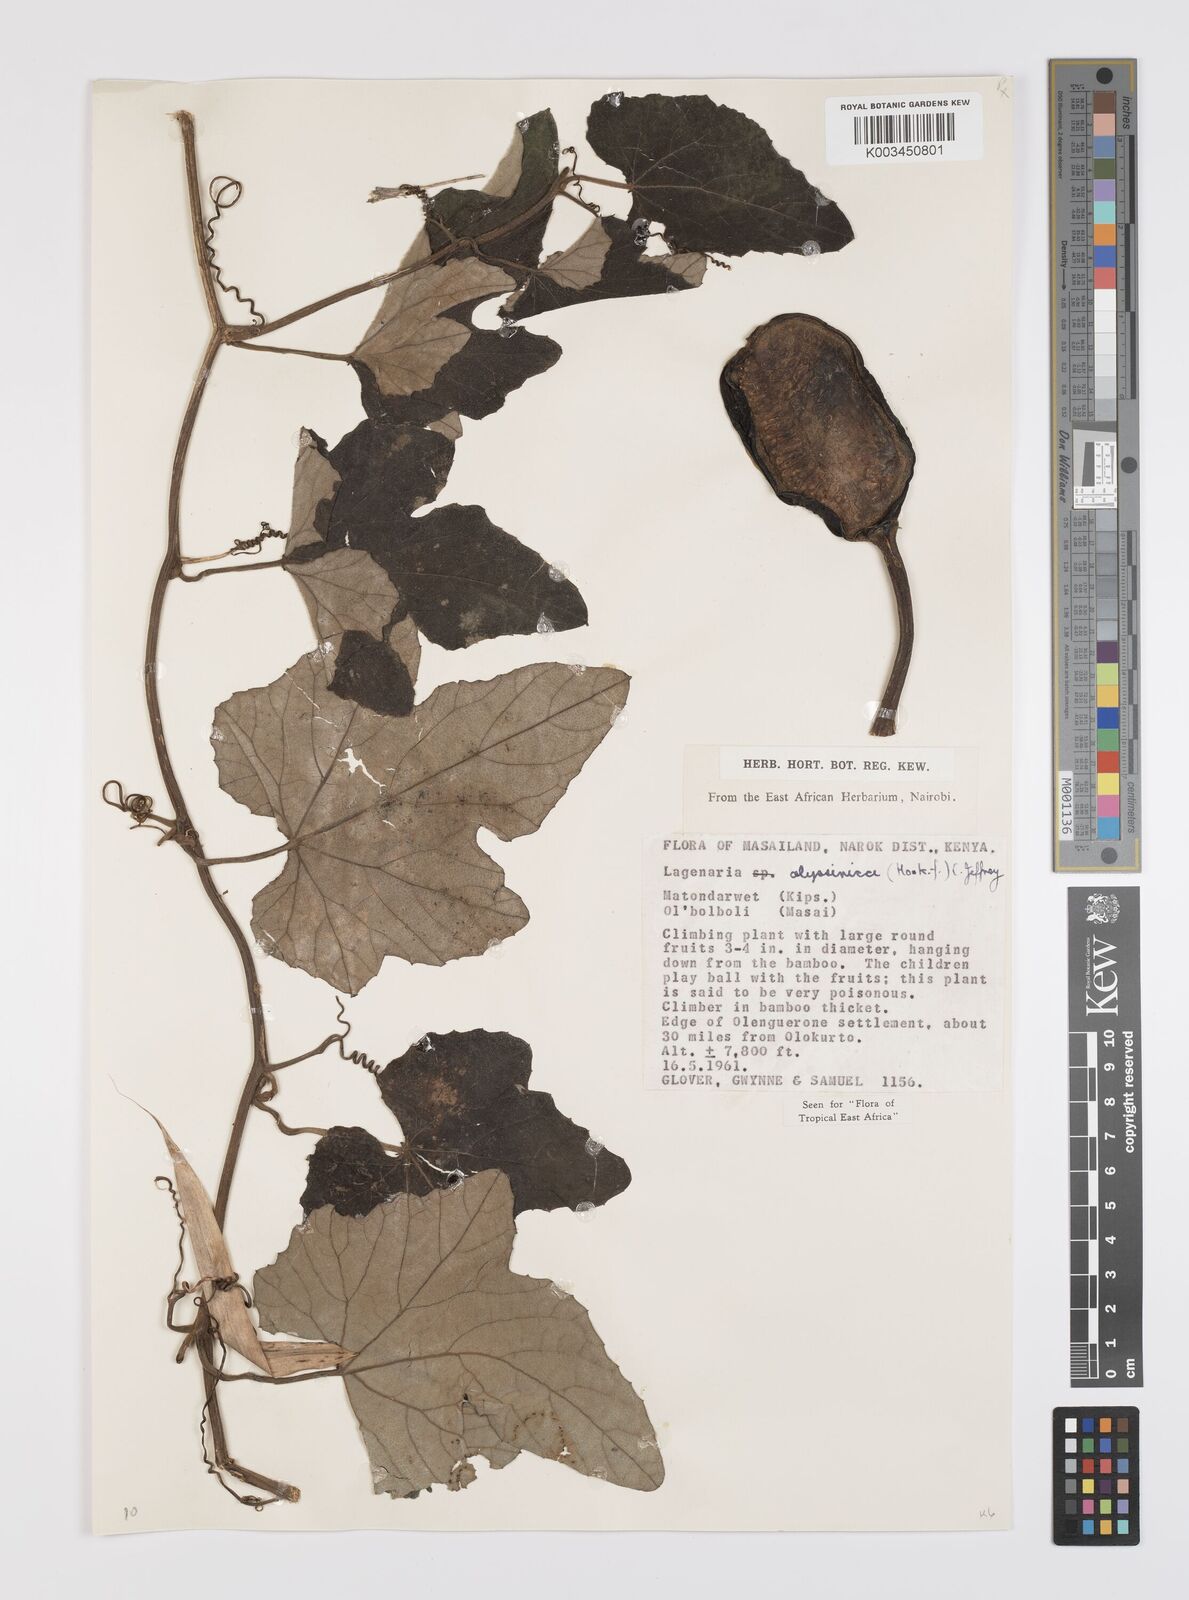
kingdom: Plantae
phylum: Tracheophyta
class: Magnoliopsida
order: Cucurbitales
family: Cucurbitaceae
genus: Lagenaria
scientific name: Lagenaria abyssinica
